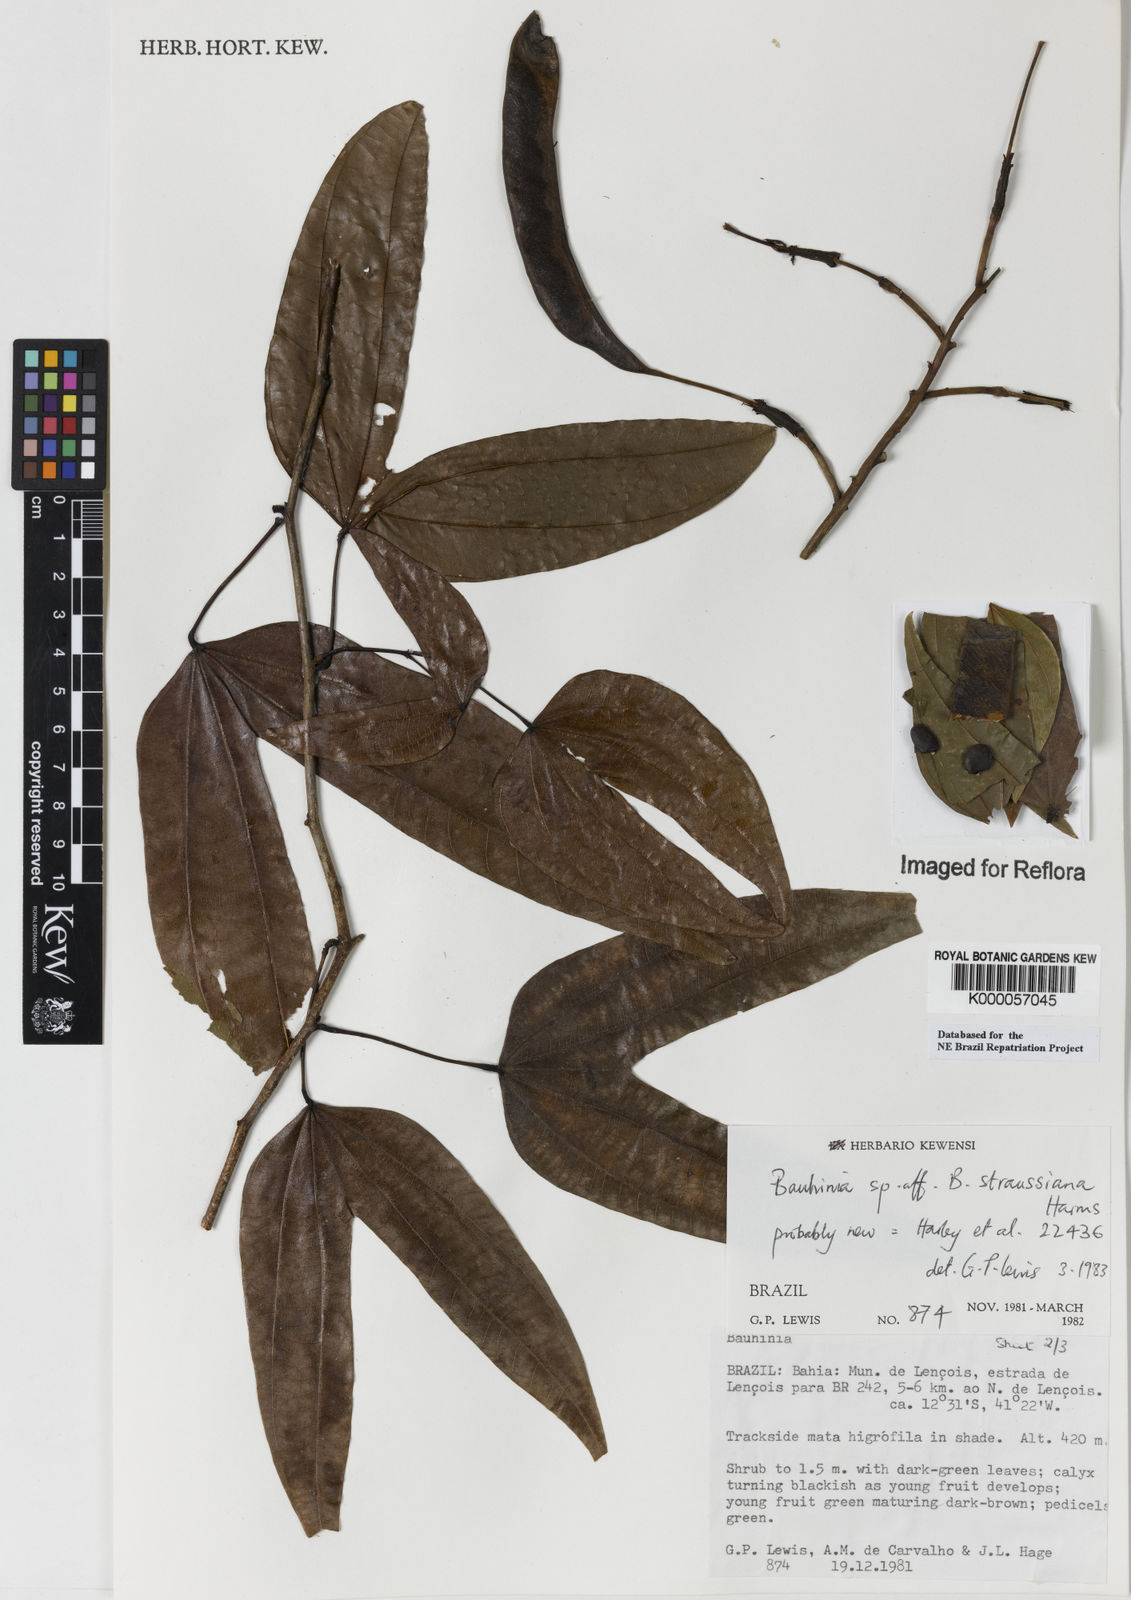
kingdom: Plantae
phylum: Tracheophyta
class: Magnoliopsida
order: Fabales
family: Fabaceae
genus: Bauhinia
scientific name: Bauhinia conwayi
